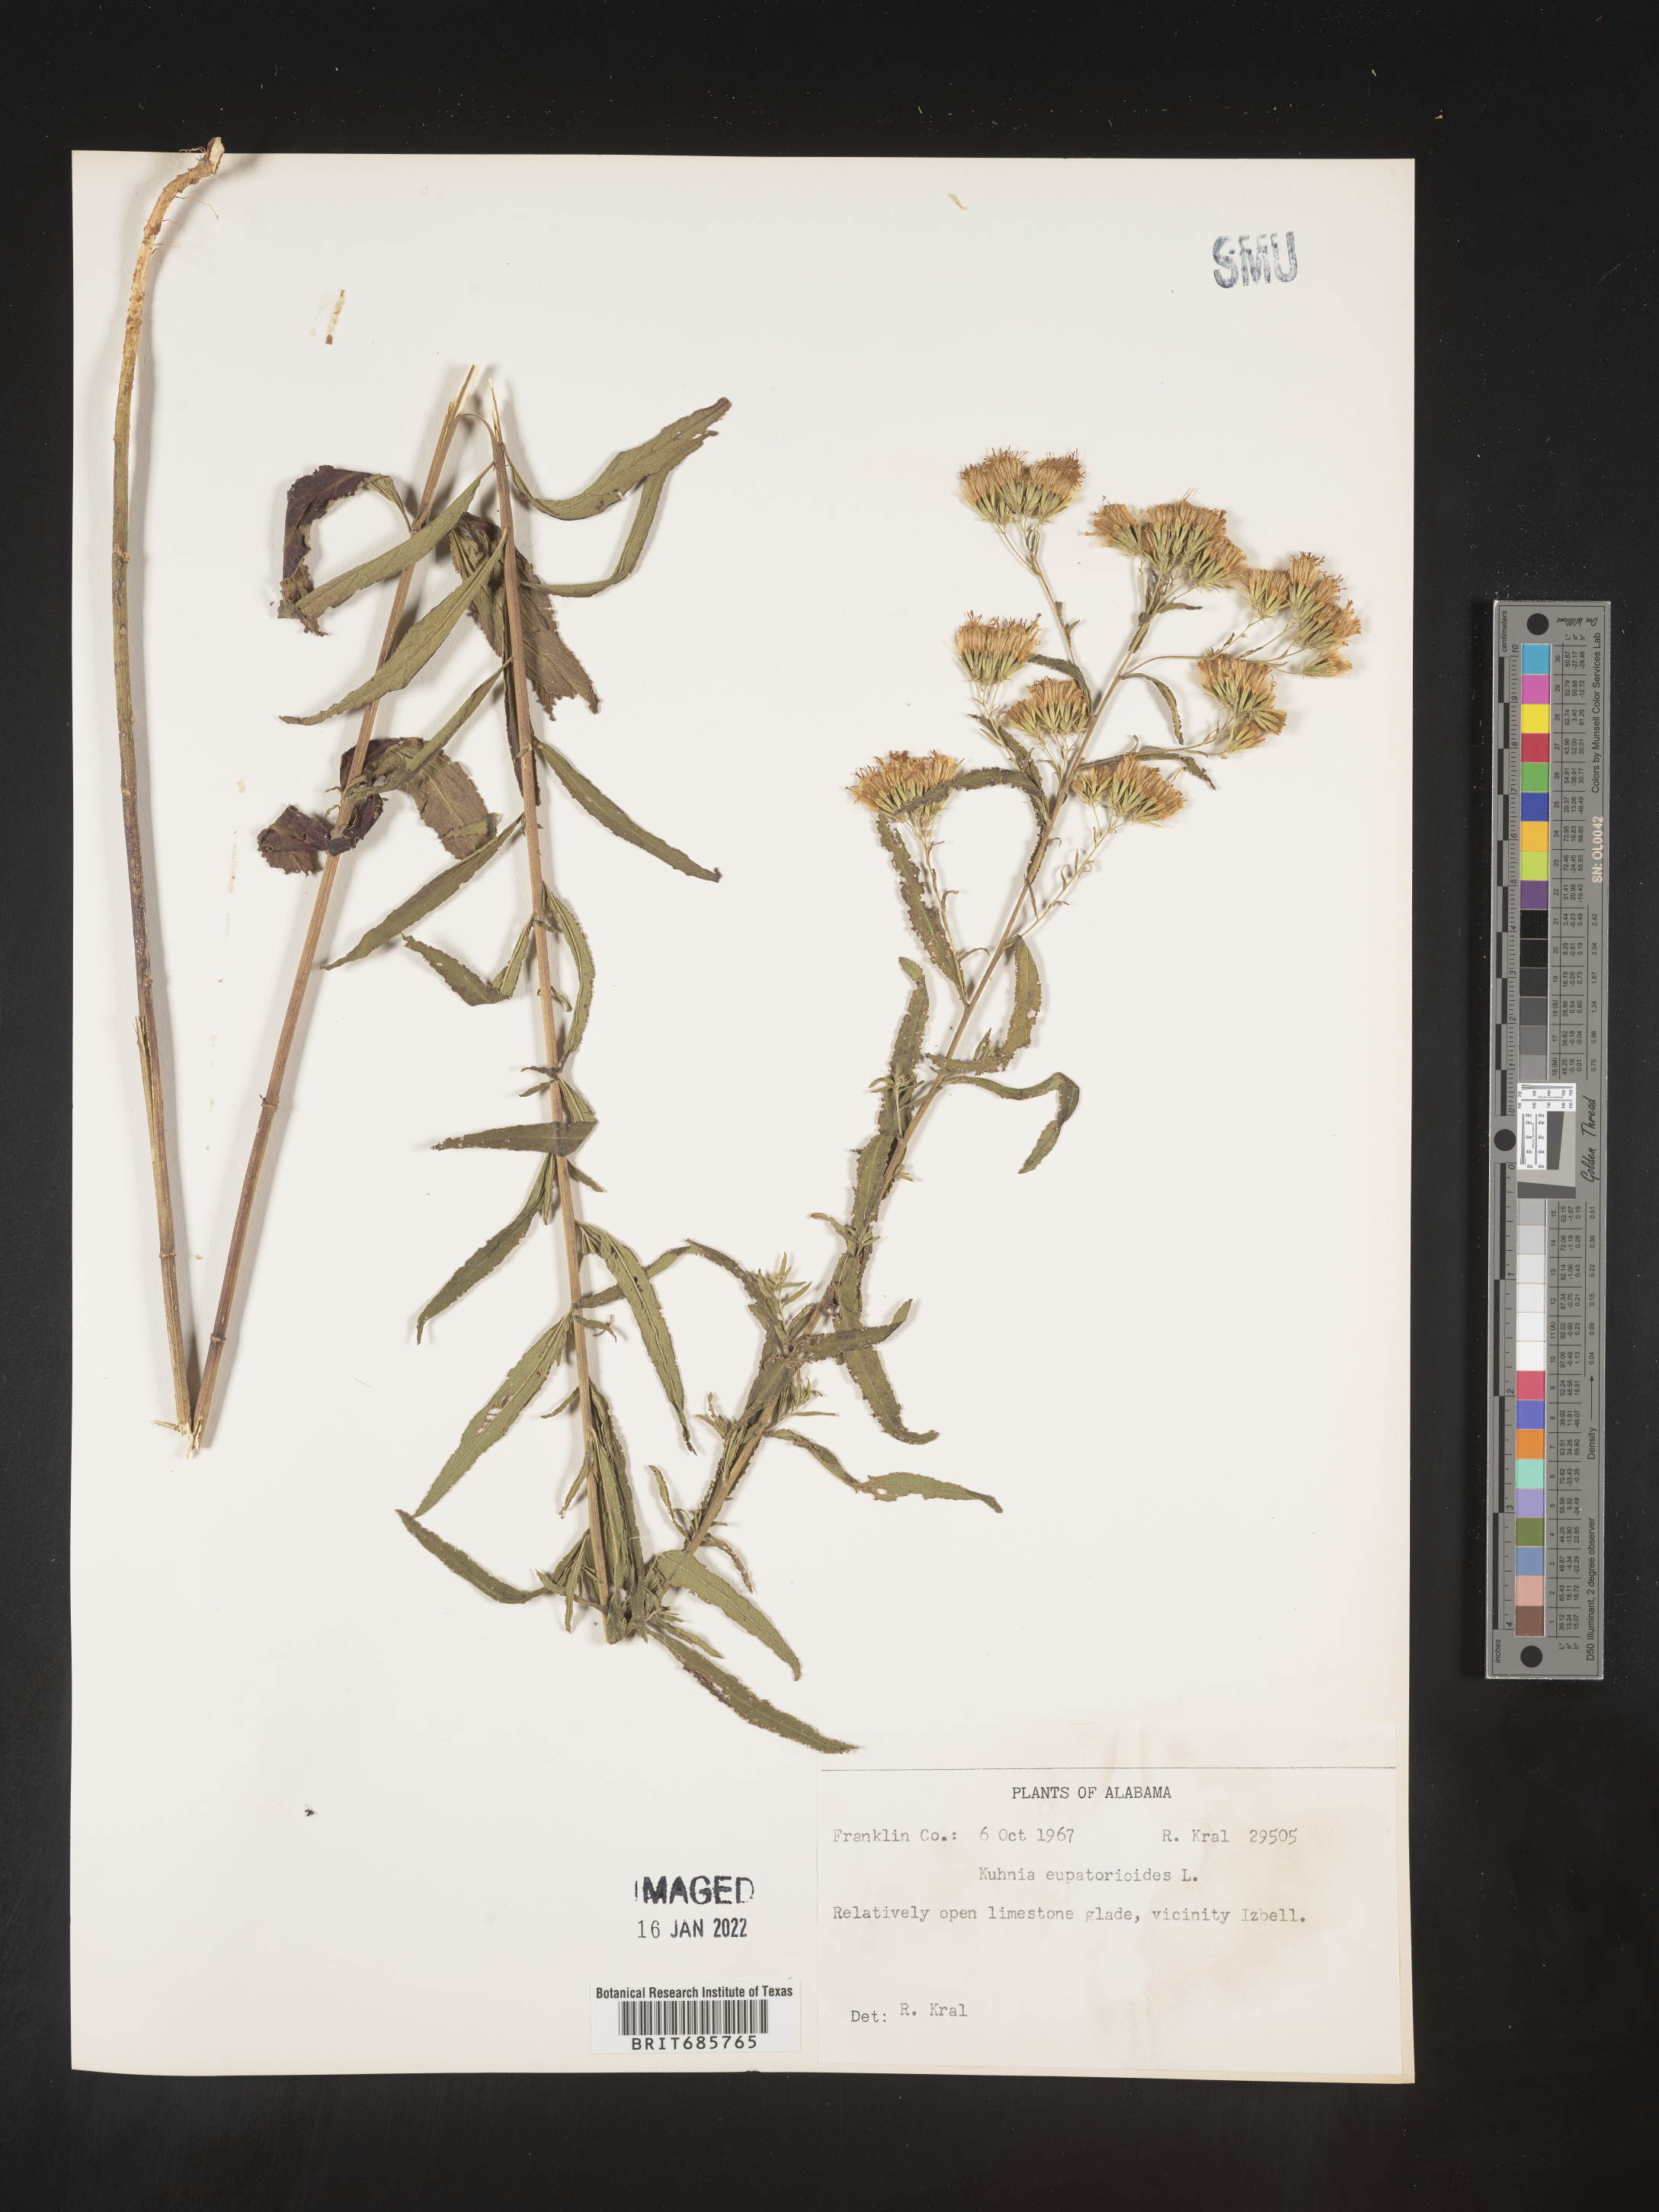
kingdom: Plantae
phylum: Tracheophyta
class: Magnoliopsida
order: Asterales
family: Asteraceae
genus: Brickellia
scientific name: Brickellia eupatorioides
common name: False boneset
